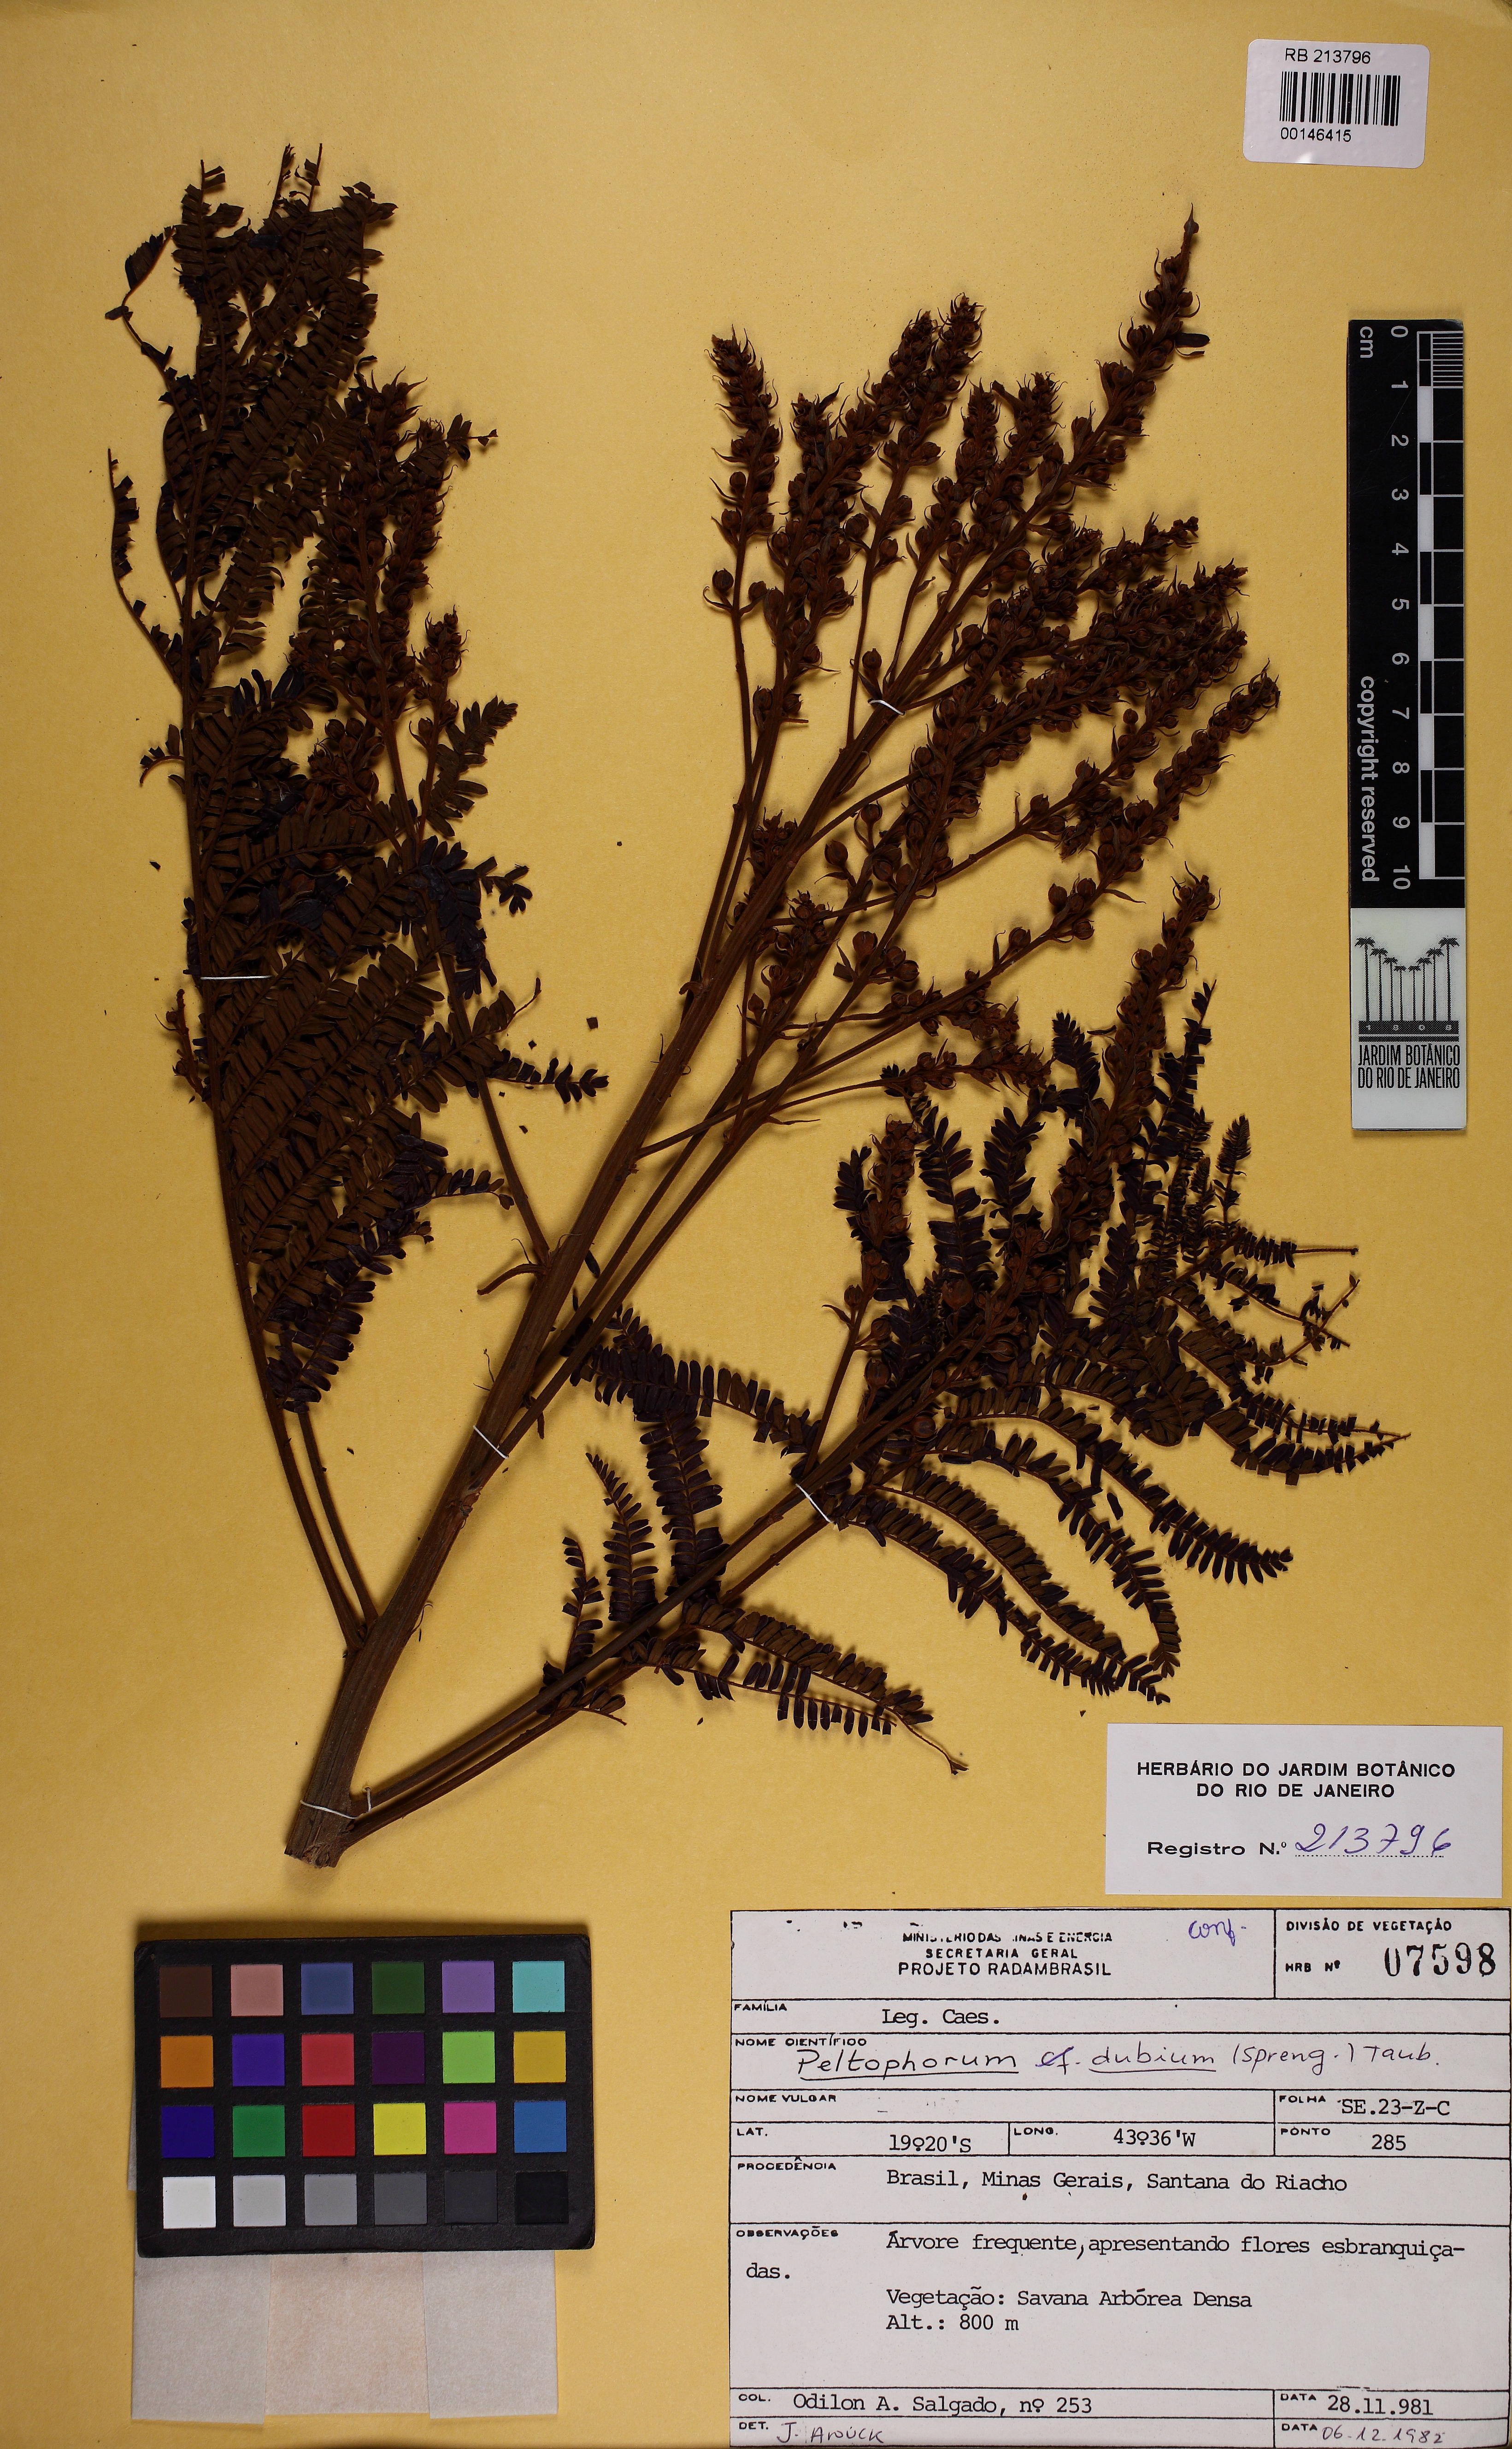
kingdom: Plantae
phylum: Tracheophyta
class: Magnoliopsida
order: Fabales
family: Fabaceae
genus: Peltophorum
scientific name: Peltophorum dubium
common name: Horsebush
